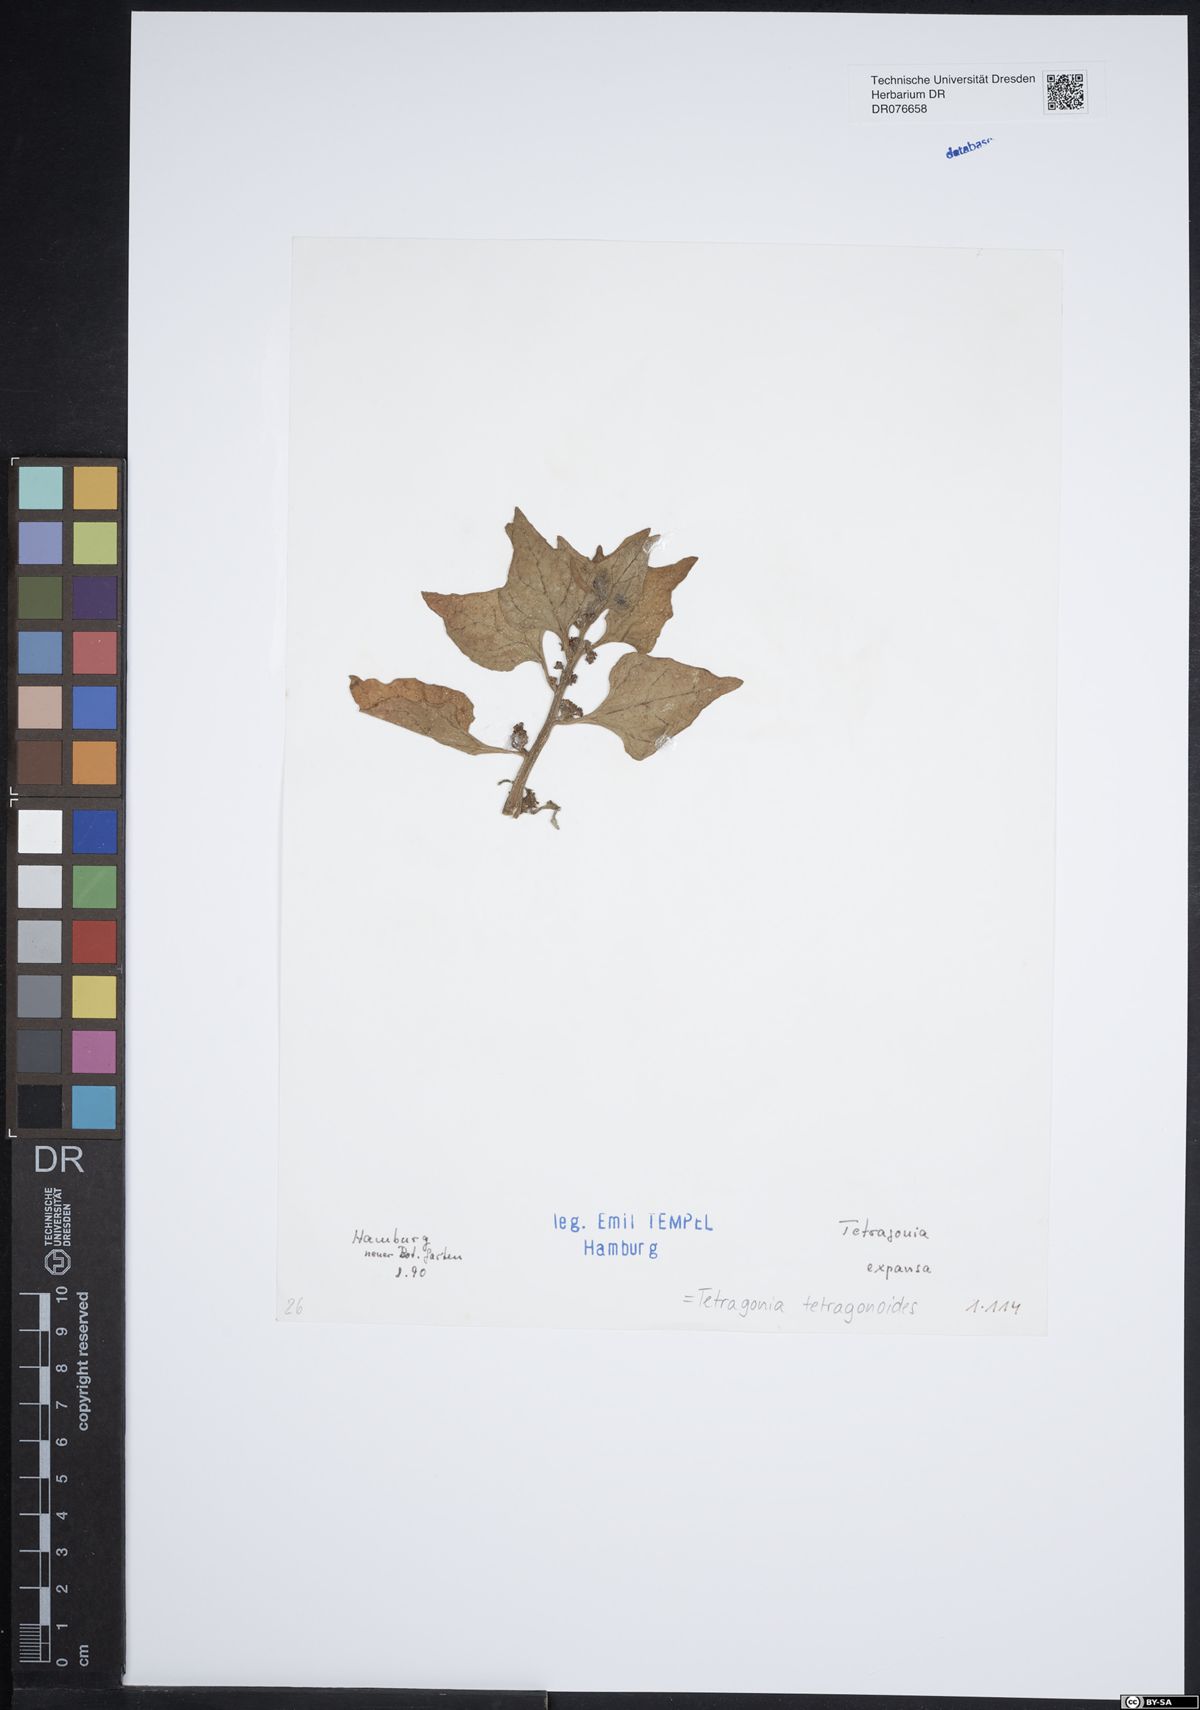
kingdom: Plantae
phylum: Tracheophyta
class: Magnoliopsida
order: Caryophyllales
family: Aizoaceae
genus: Tetragonia
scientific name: Tetragonia tetragonoides
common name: New zealand-spinach
